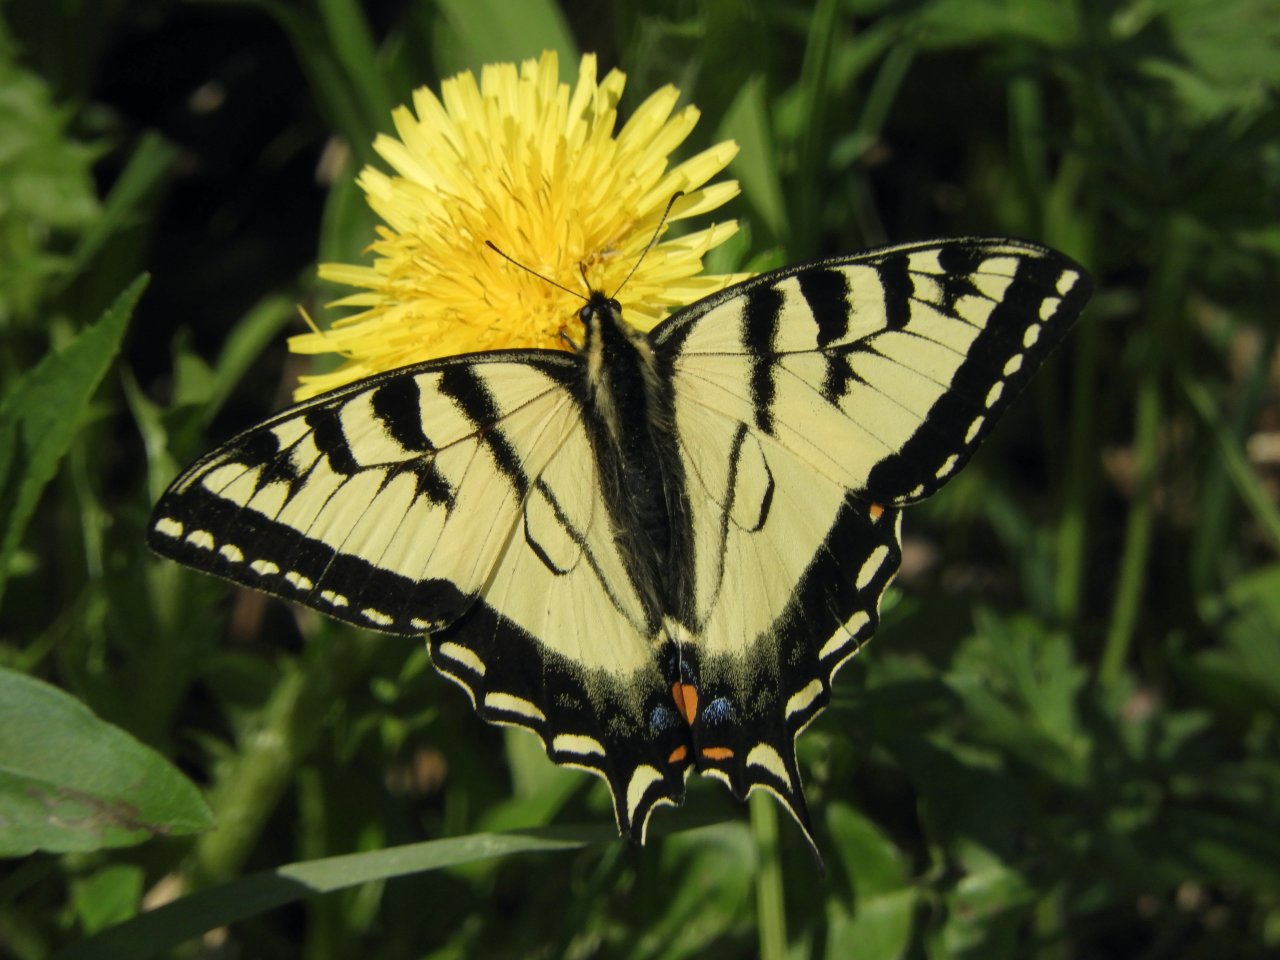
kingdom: Animalia
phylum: Arthropoda
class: Insecta
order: Lepidoptera
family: Papilionidae
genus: Pterourus
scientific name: Pterourus canadensis
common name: Canadian Tiger Swallowtail
